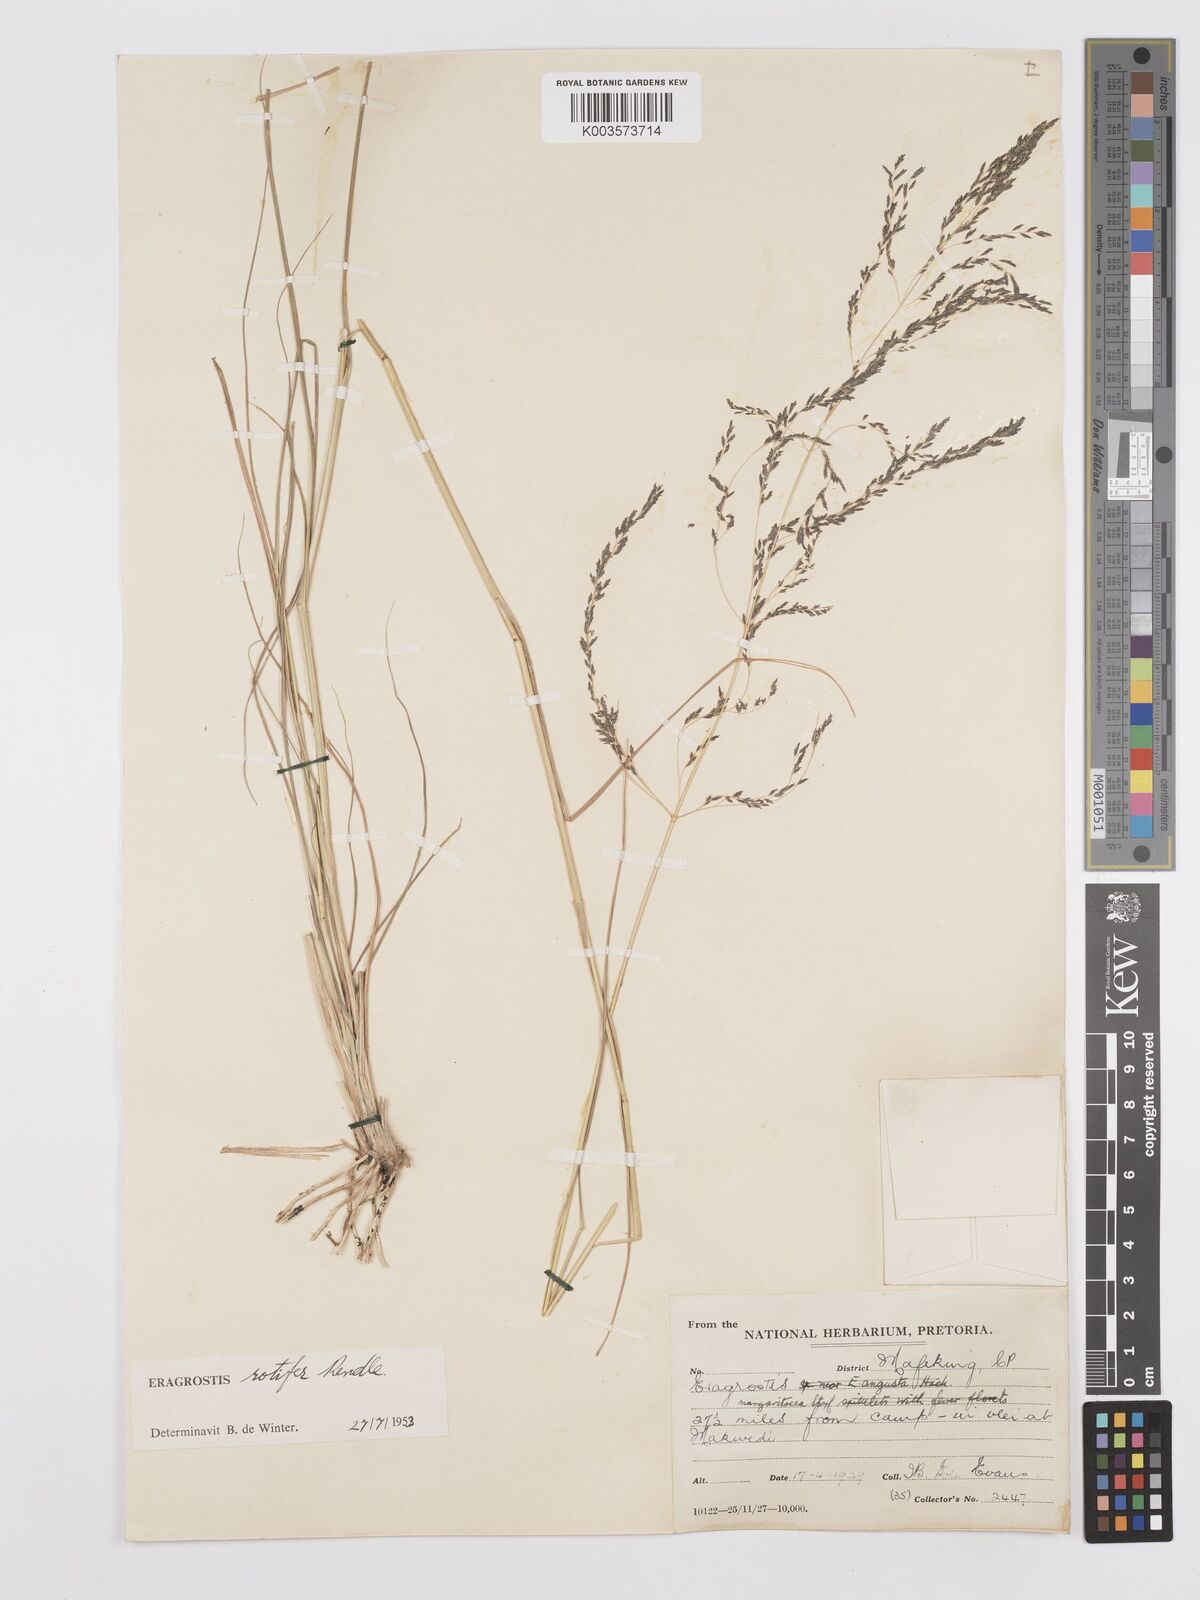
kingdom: Plantae
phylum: Tracheophyta
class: Liliopsida
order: Poales
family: Poaceae
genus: Eragrostis
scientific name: Eragrostis rotifer
